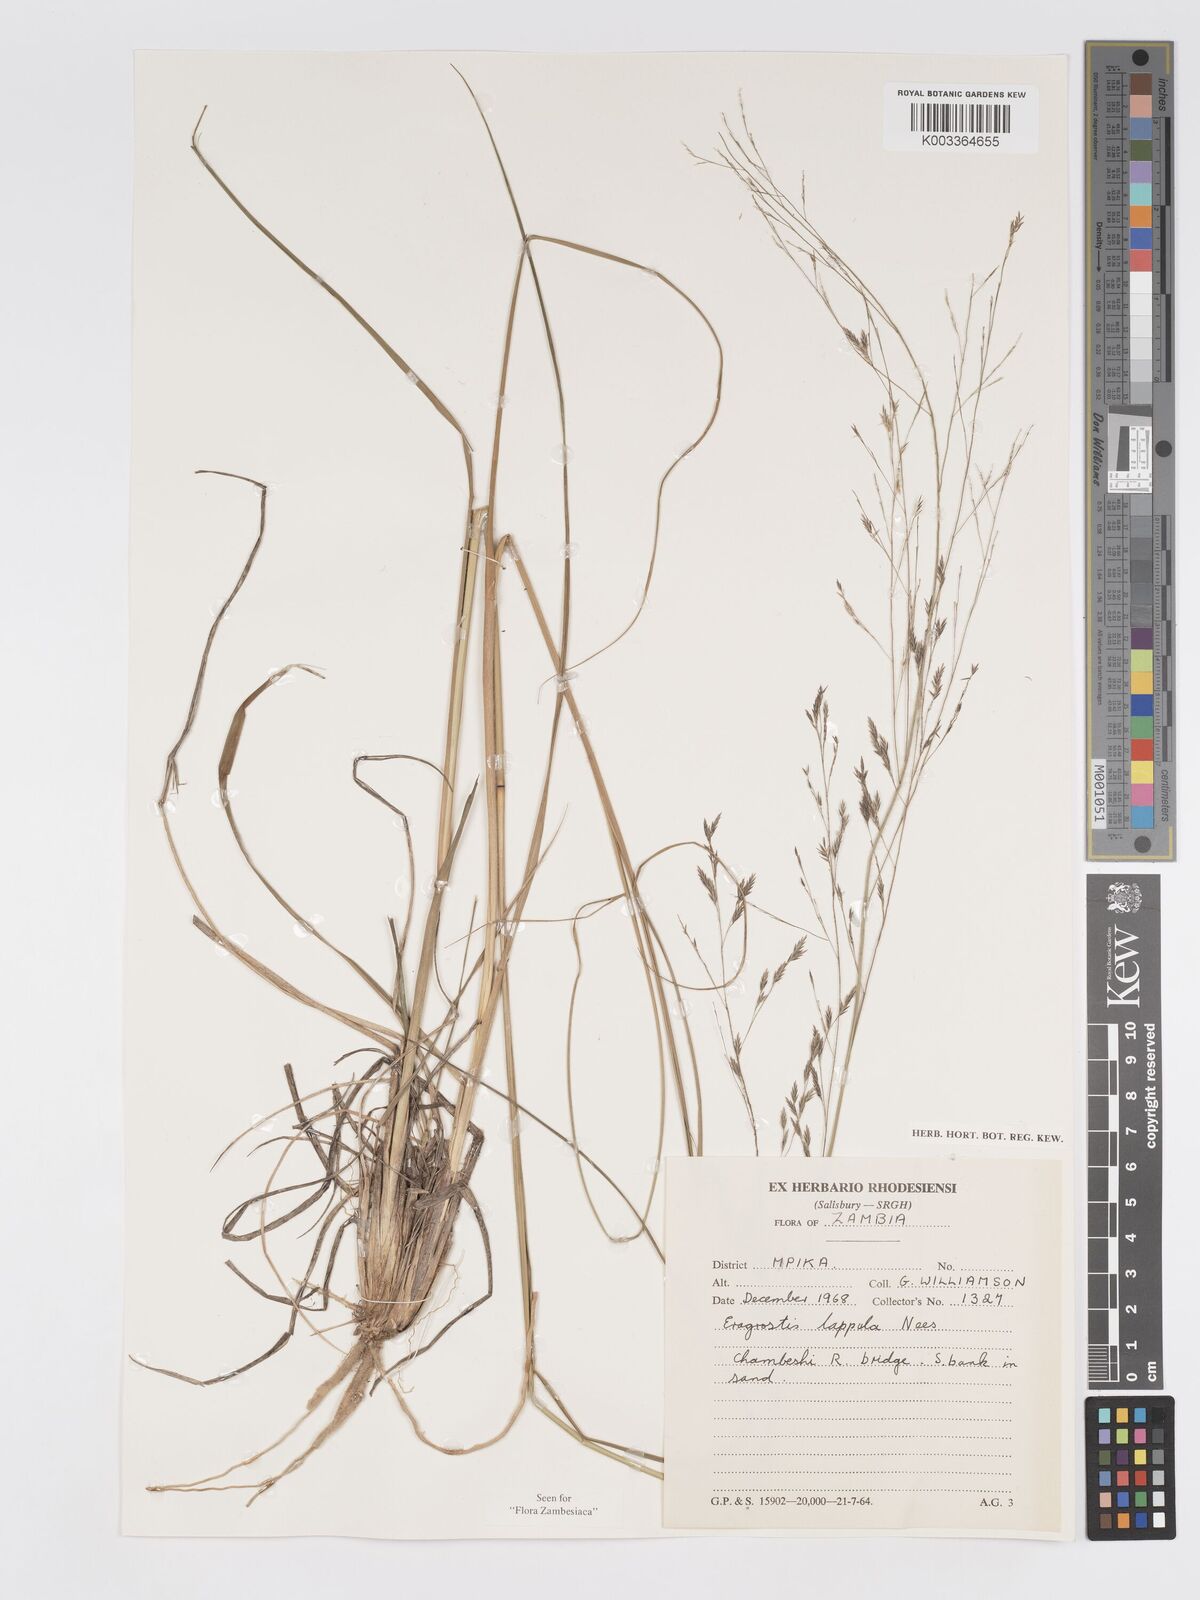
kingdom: Plantae
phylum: Tracheophyta
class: Liliopsida
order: Poales
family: Poaceae
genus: Eragrostis
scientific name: Eragrostis lappula
